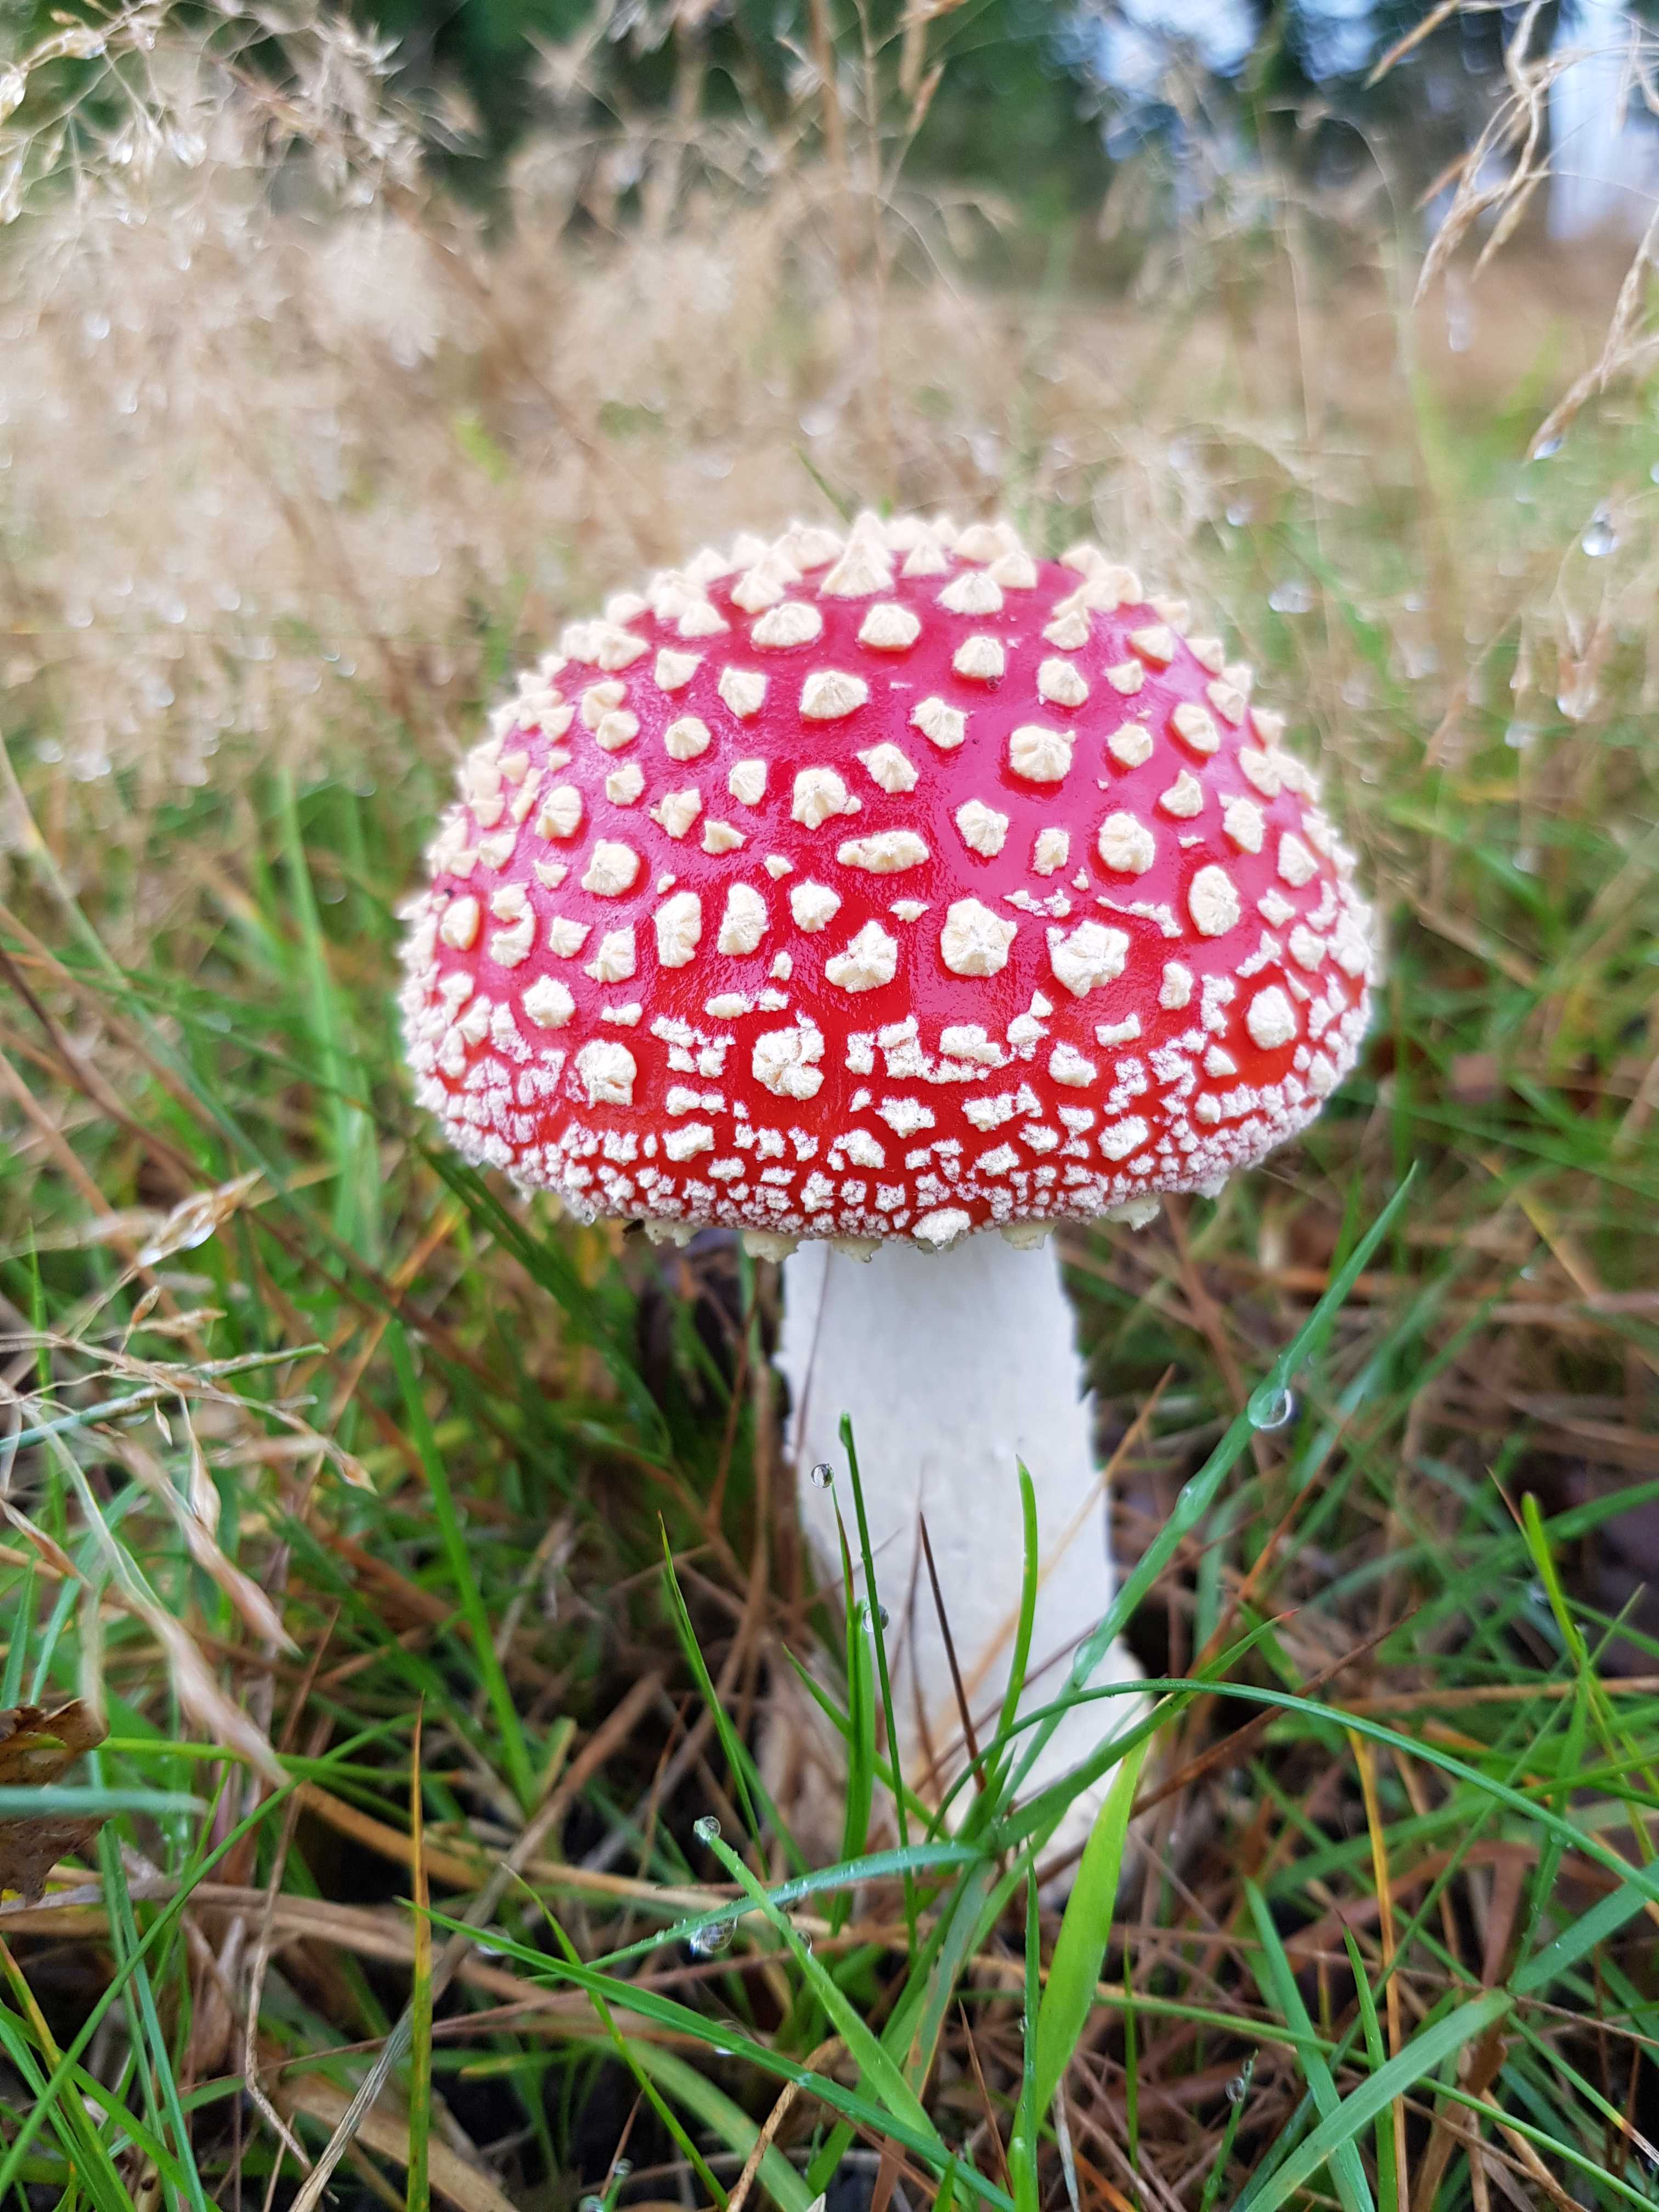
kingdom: Fungi
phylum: Basidiomycota
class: Agaricomycetes
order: Agaricales
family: Amanitaceae
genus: Amanita
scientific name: Amanita muscaria
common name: rød fluesvamp
